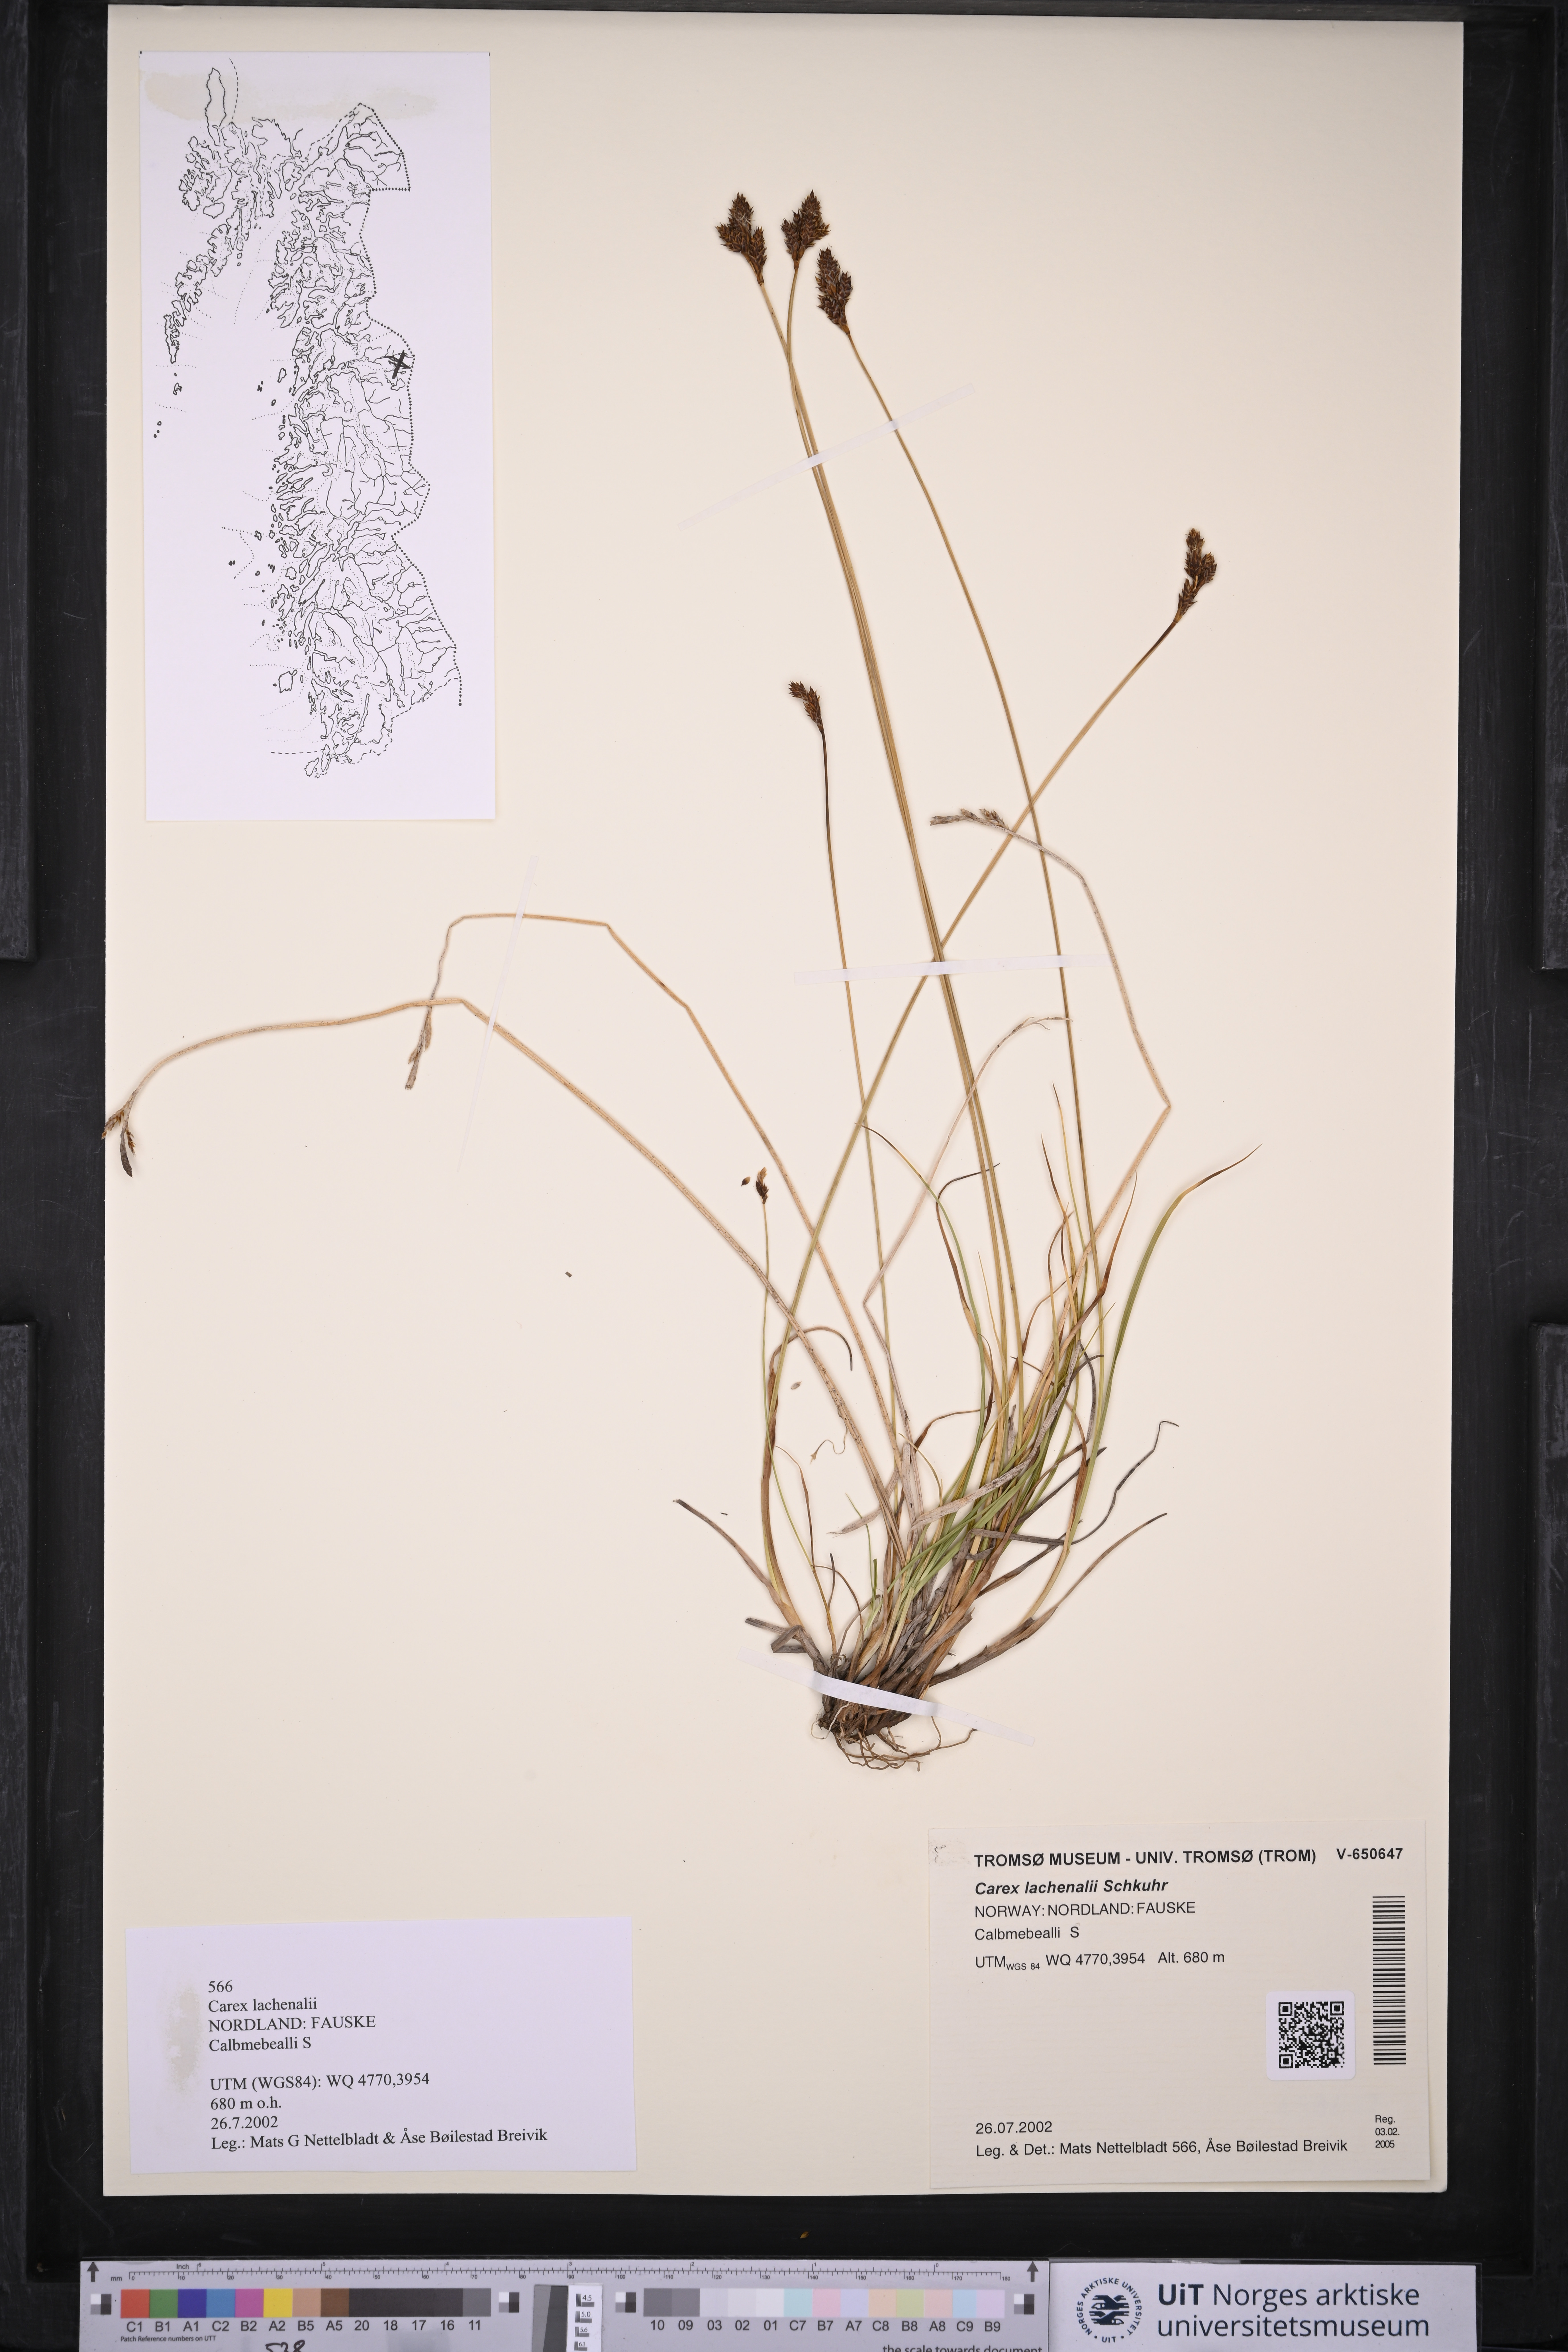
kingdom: Plantae
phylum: Tracheophyta
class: Liliopsida
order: Poales
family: Cyperaceae
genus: Carex
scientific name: Carex lachenalii
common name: Hare's-foot sedge
